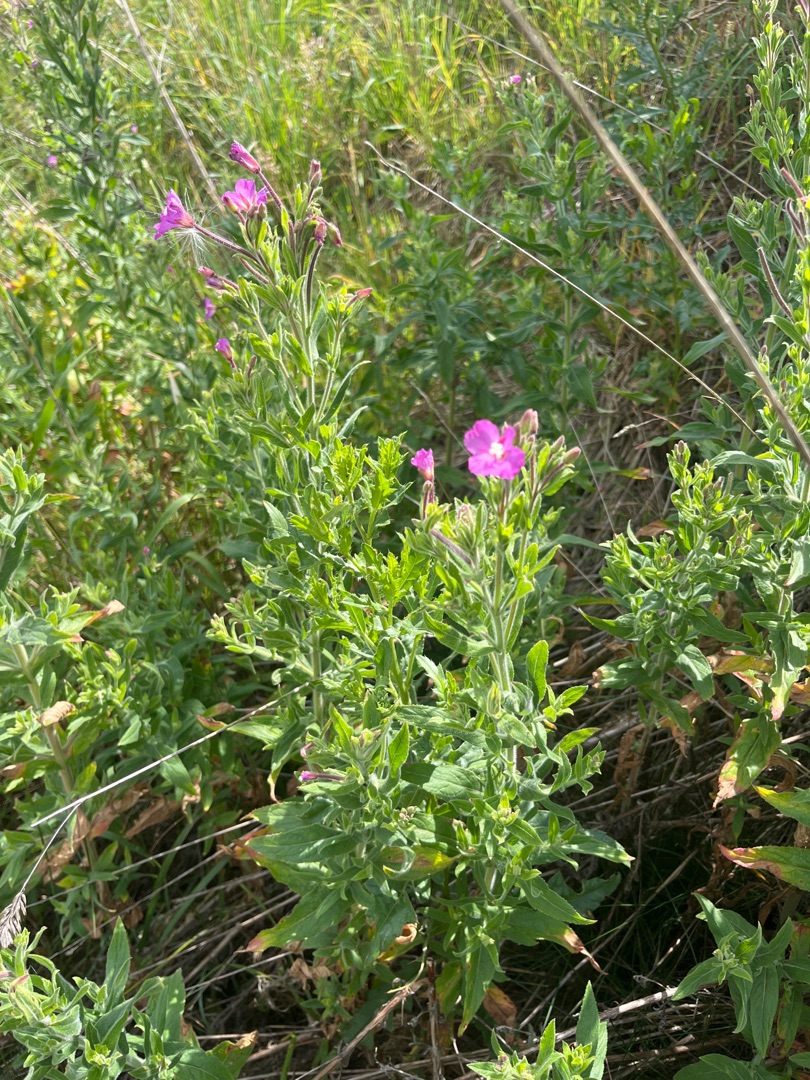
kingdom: Plantae
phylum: Tracheophyta
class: Magnoliopsida
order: Myrtales
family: Onagraceae
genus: Epilobium
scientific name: Epilobium hirsutum
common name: Lådden dueurt
